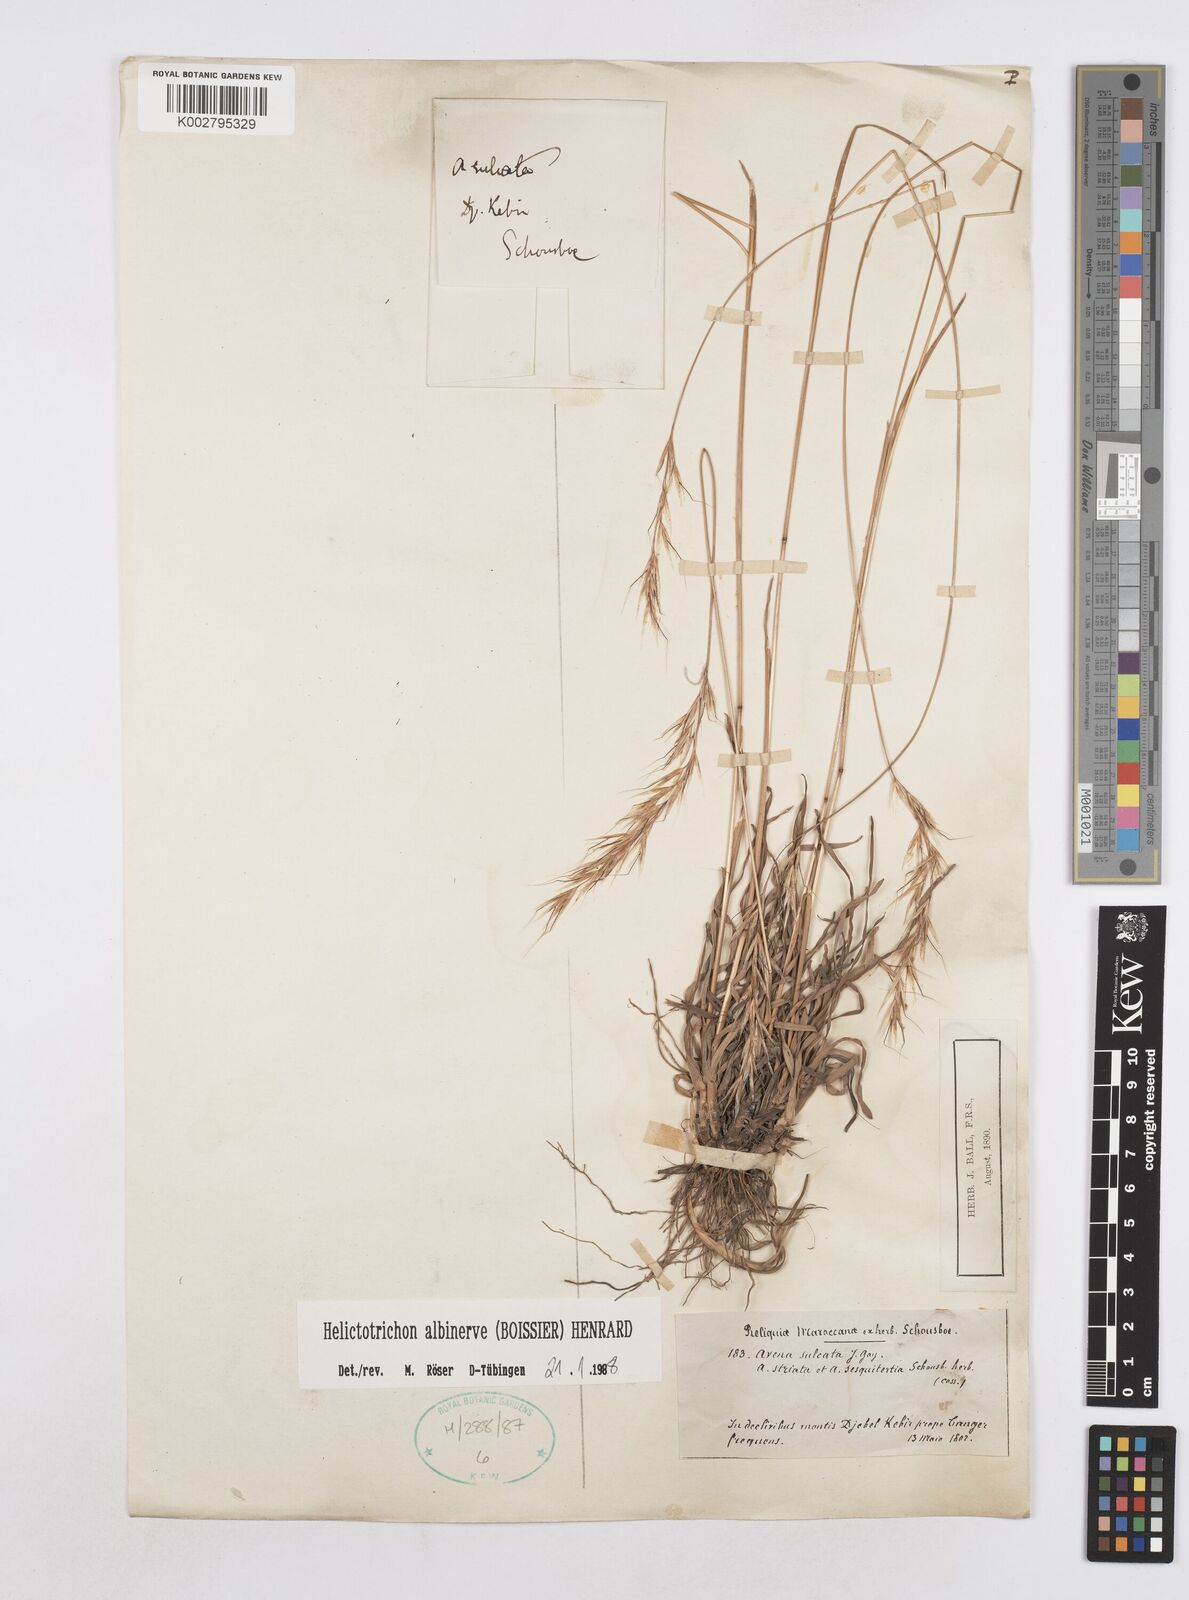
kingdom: Plantae
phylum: Tracheophyta
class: Liliopsida
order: Poales
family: Poaceae
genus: Helictochloa
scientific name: Helictochloa albinervis
